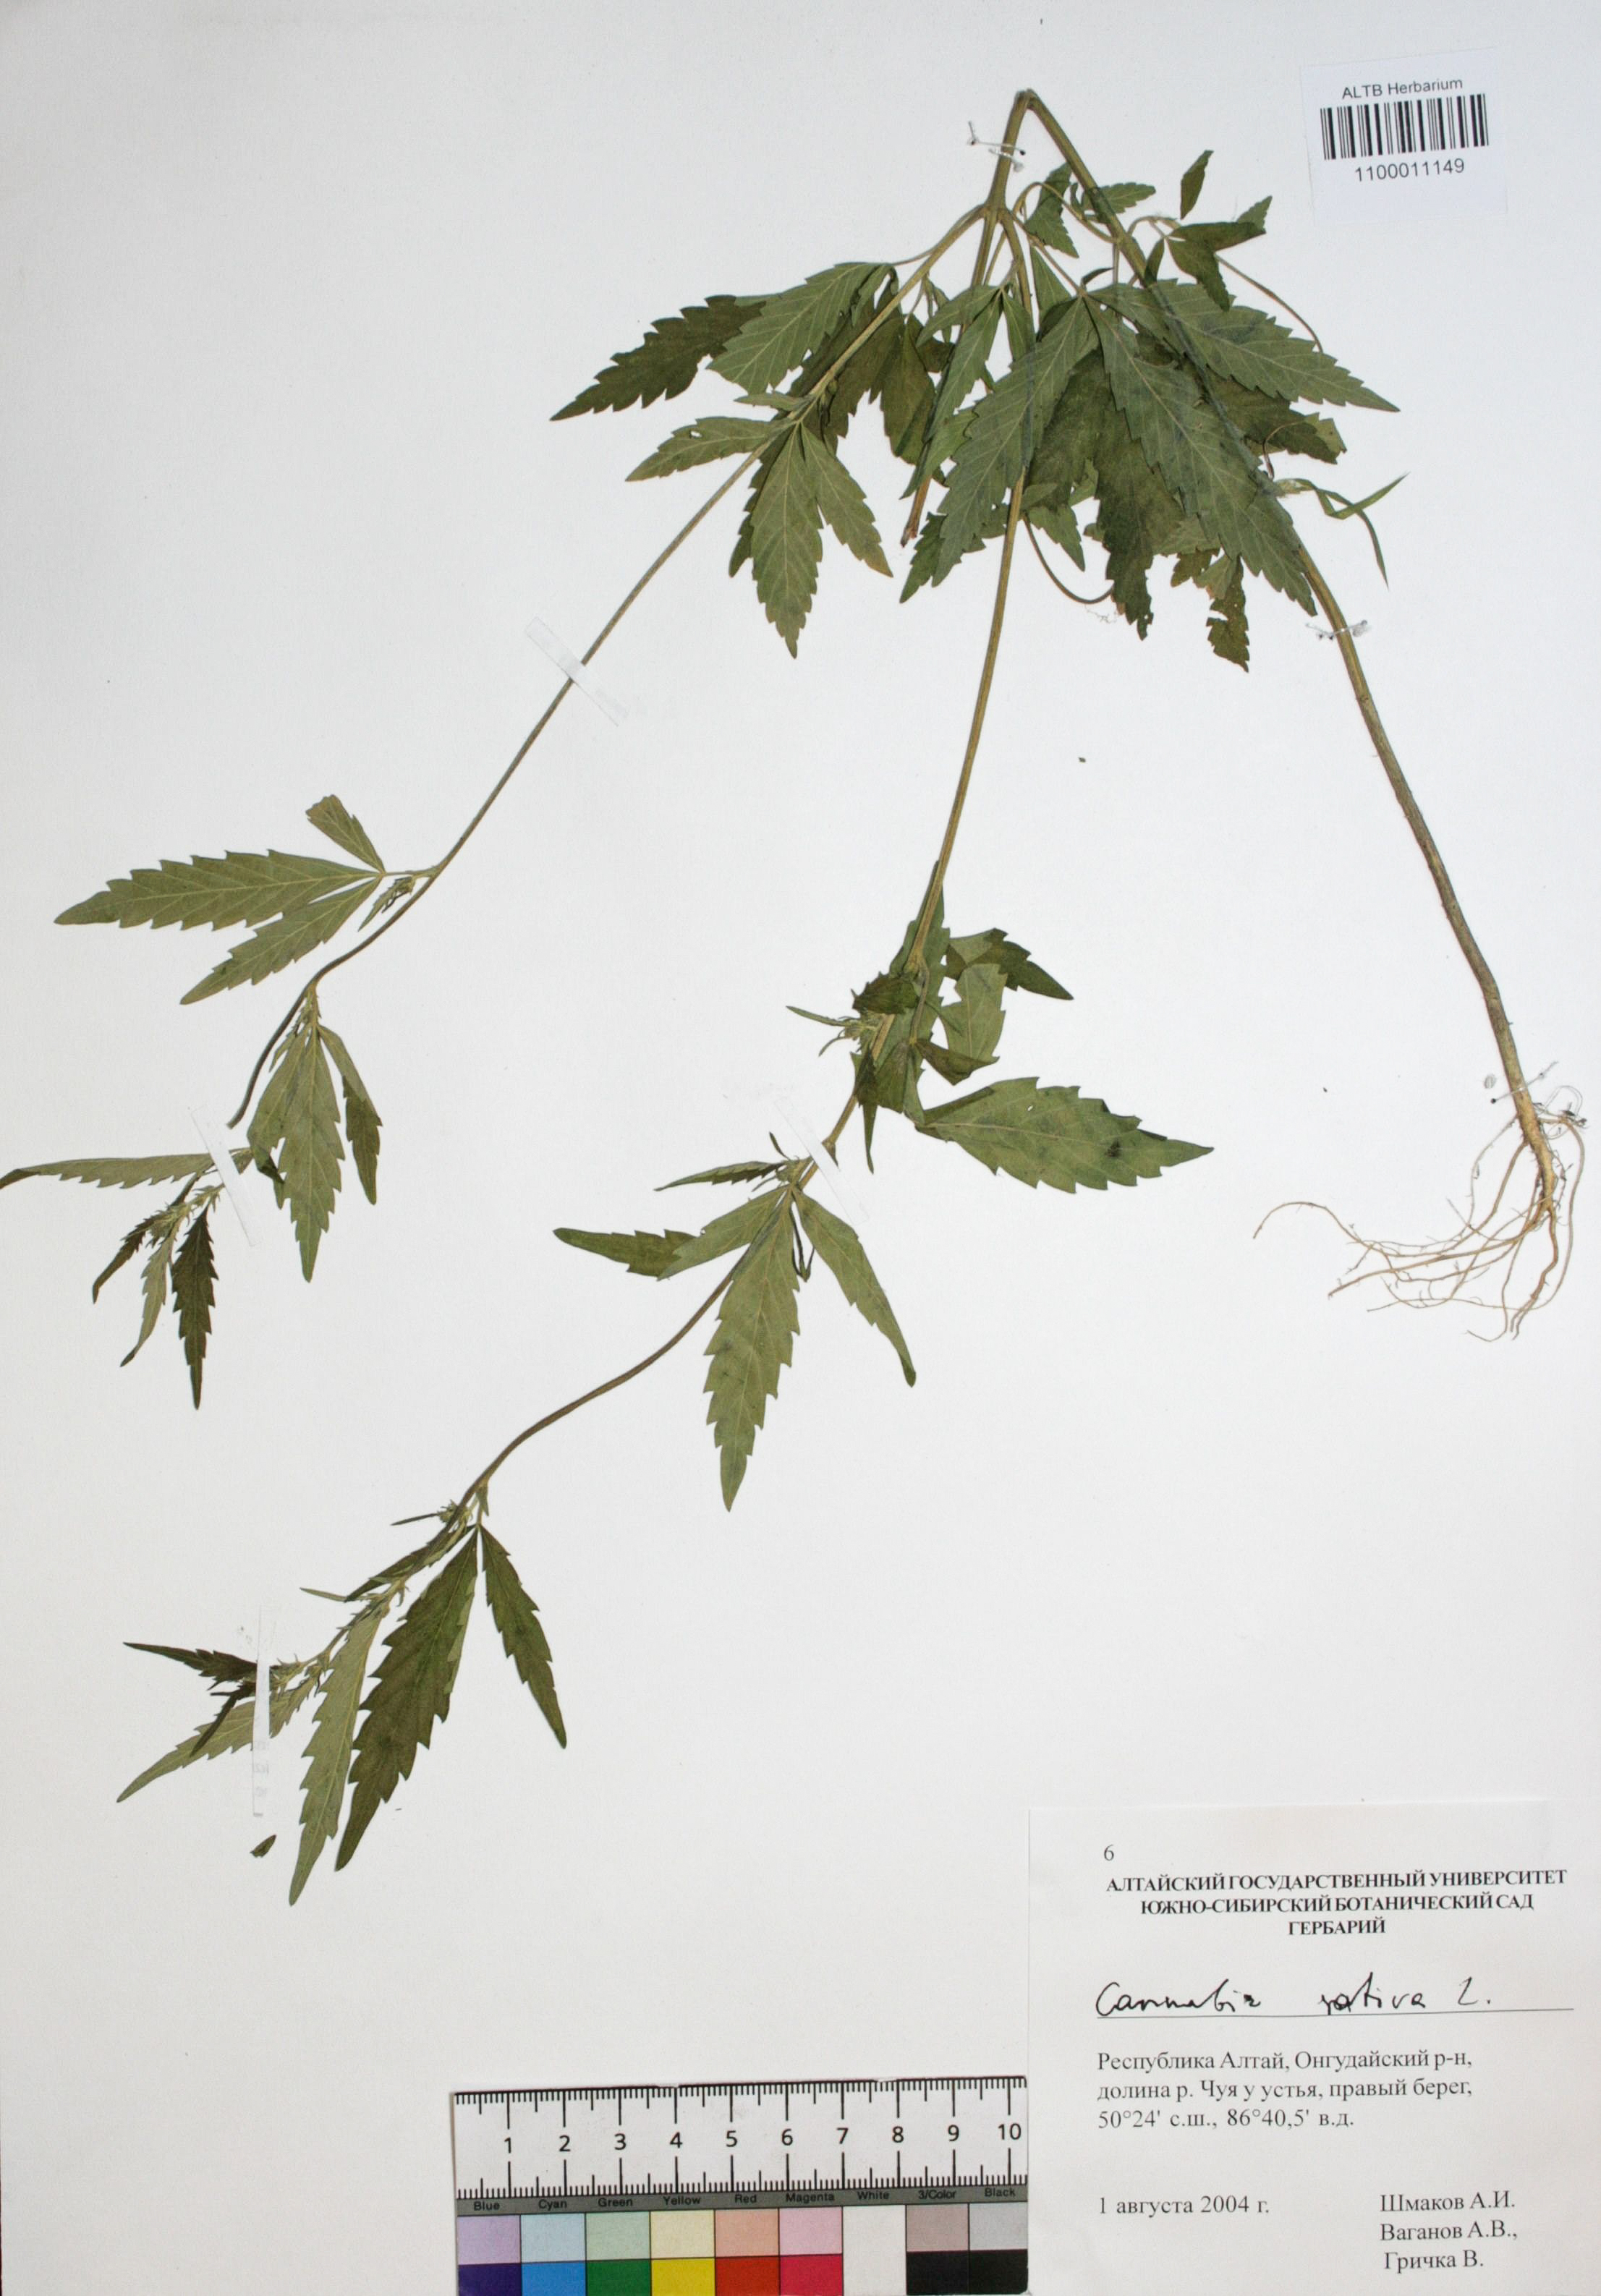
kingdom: Plantae
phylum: Tracheophyta
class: Magnoliopsida
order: Rosales
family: Cannabaceae
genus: Cannabis
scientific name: Cannabis sativa
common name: Hemp
